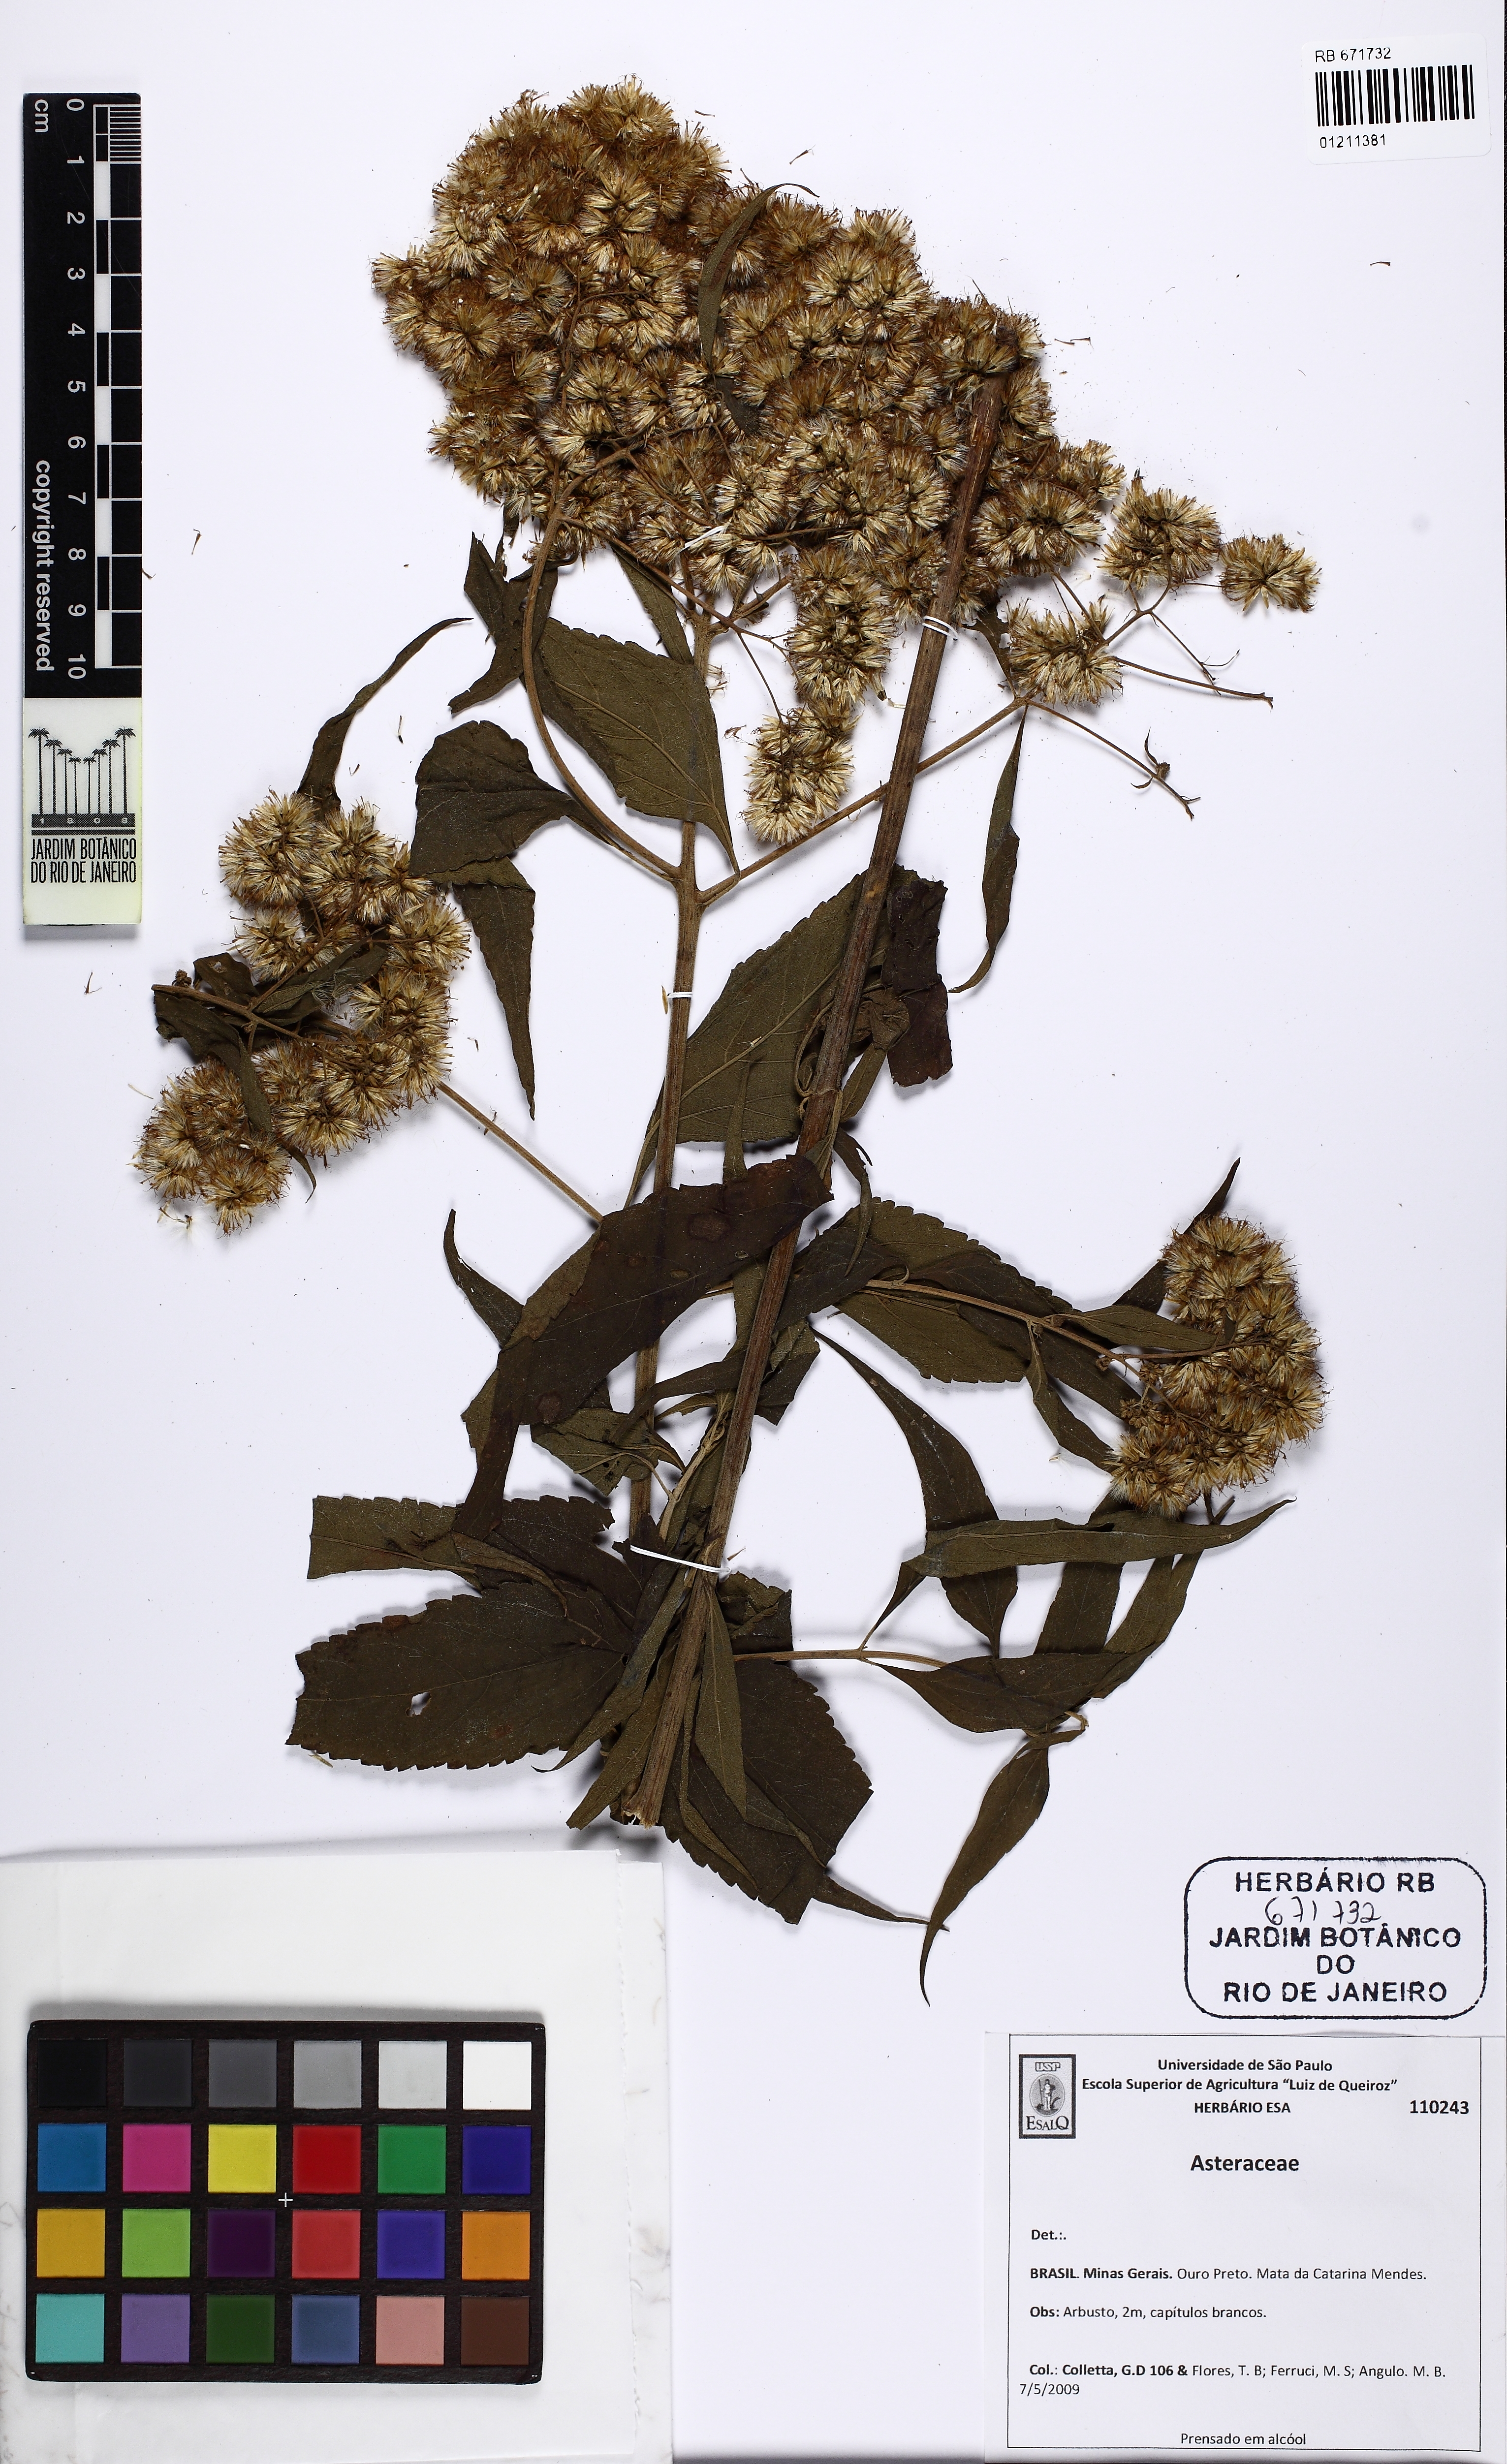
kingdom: Plantae
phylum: Tracheophyta
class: Magnoliopsida
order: Asterales
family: Asteraceae
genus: Austroeupatorium
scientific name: Austroeupatorium
